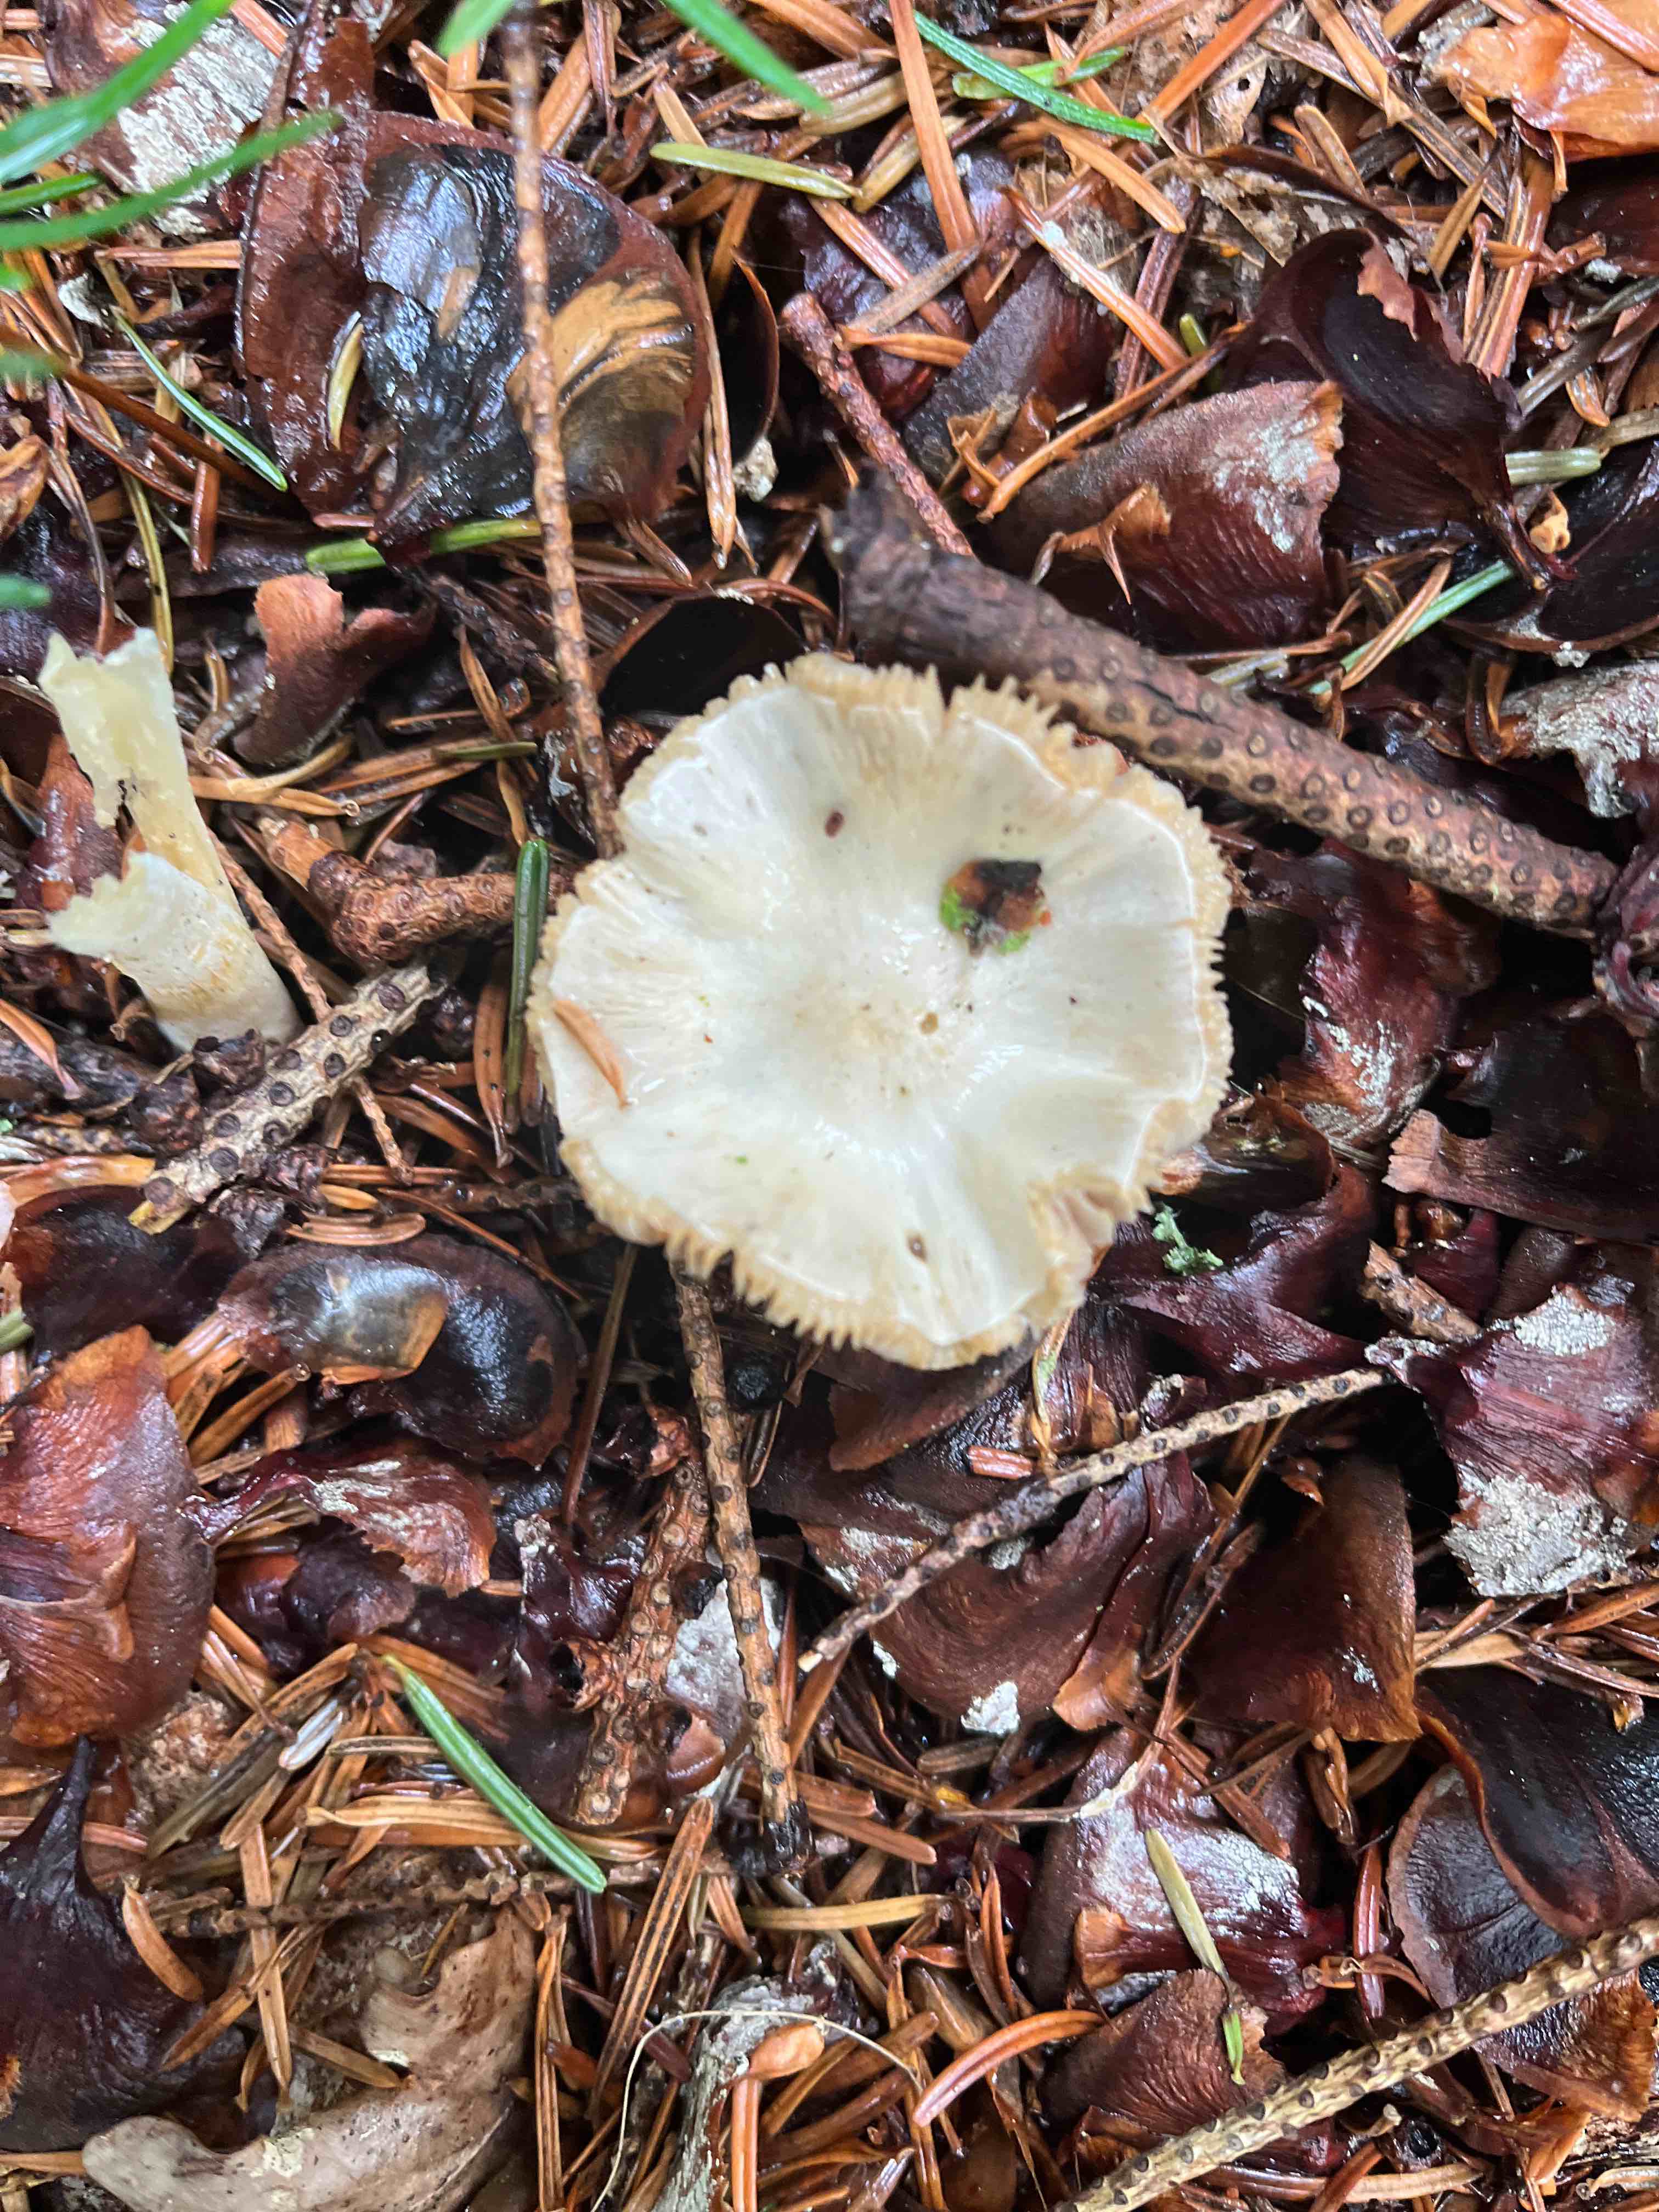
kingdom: Fungi
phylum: Basidiomycota
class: Agaricomycetes
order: Agaricales
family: Inocybaceae
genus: Inocybe
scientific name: Inocybe
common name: almindelig trævlhat
